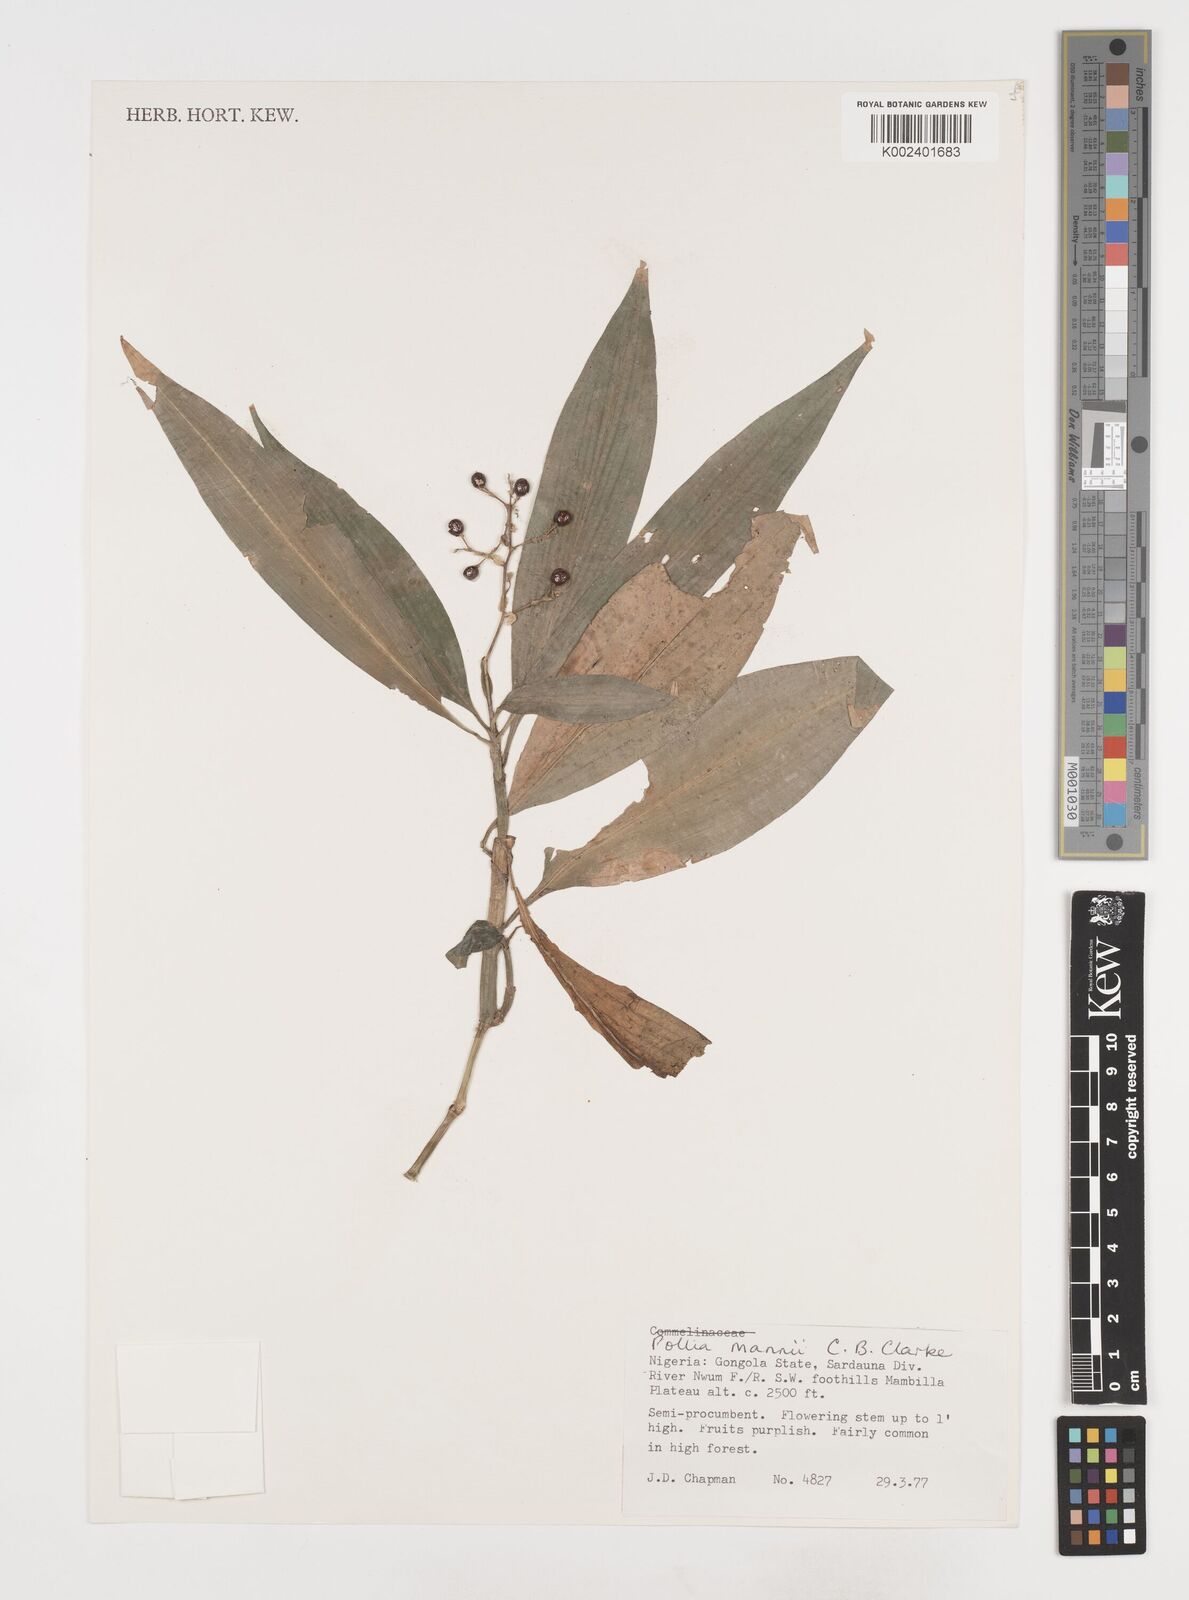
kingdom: Plantae
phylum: Tracheophyta
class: Liliopsida
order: Commelinales
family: Commelinaceae
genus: Pollia
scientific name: Pollia mannii
